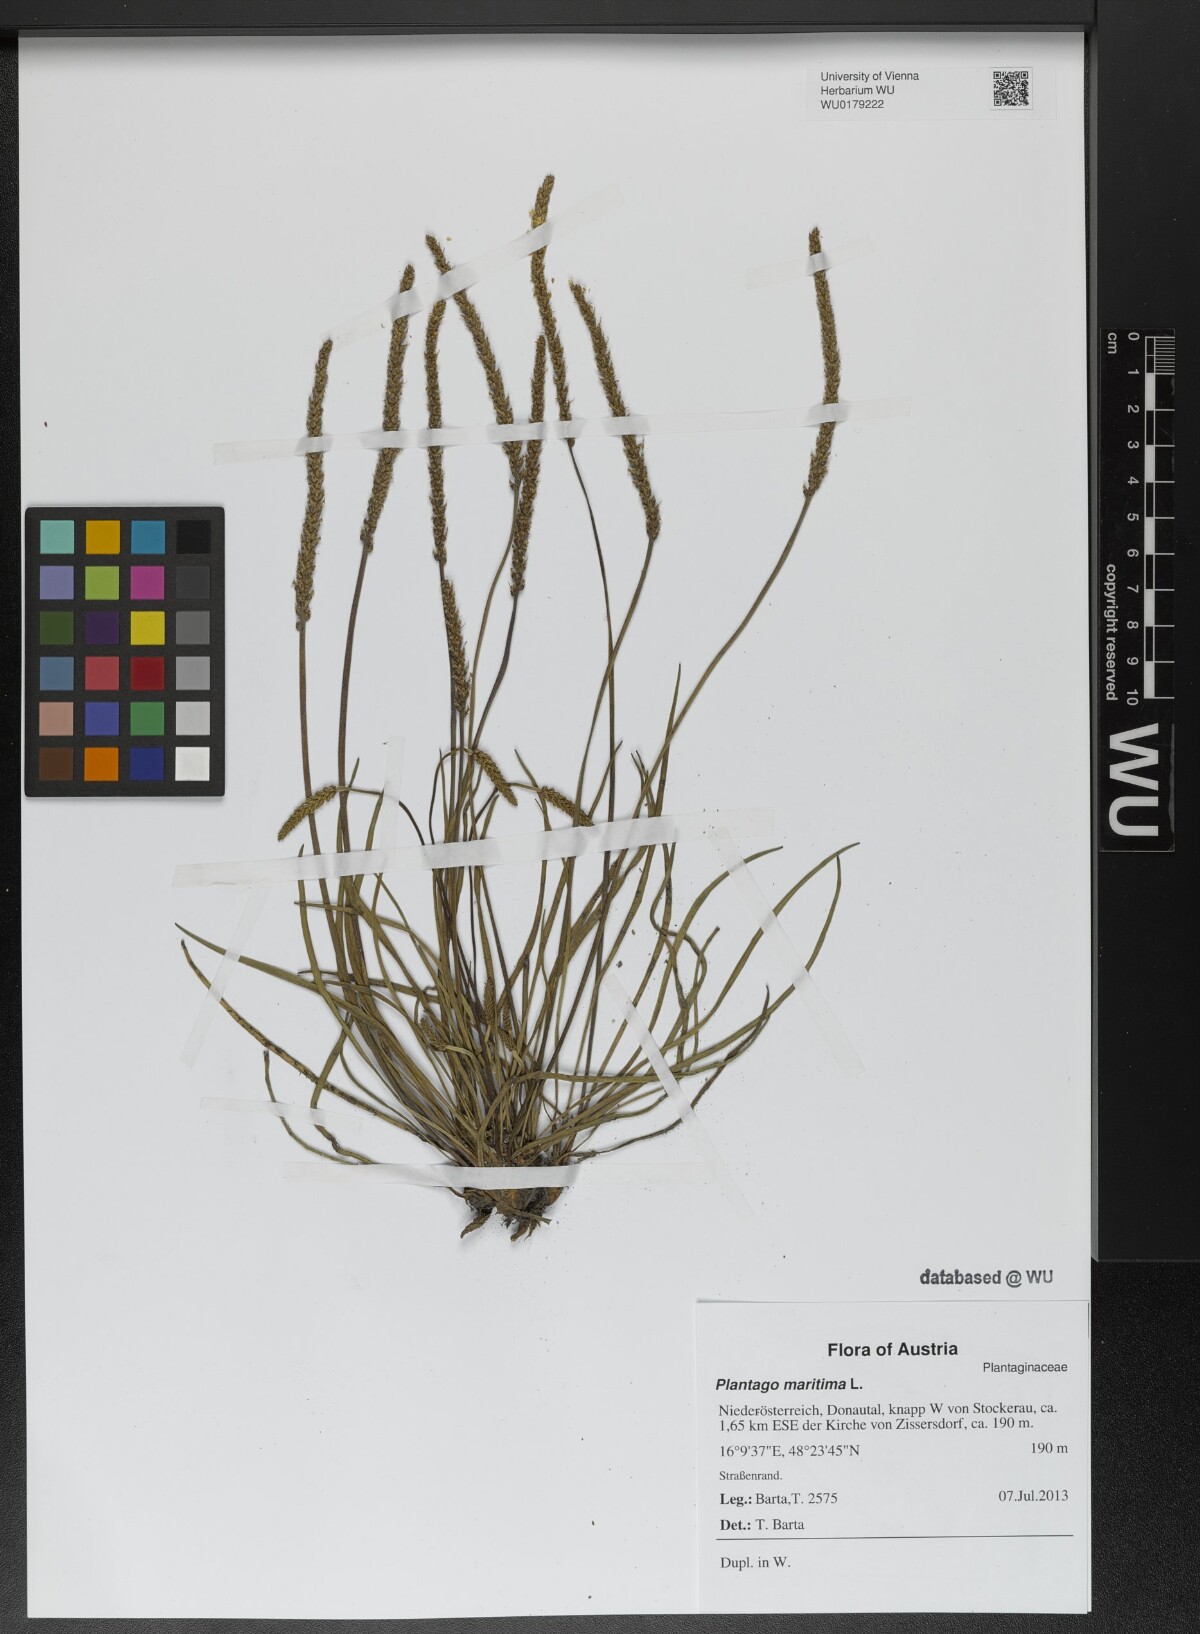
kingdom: Plantae
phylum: Tracheophyta
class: Magnoliopsida
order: Lamiales
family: Plantaginaceae
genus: Plantago
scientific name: Plantago maritima
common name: Sea plantain
